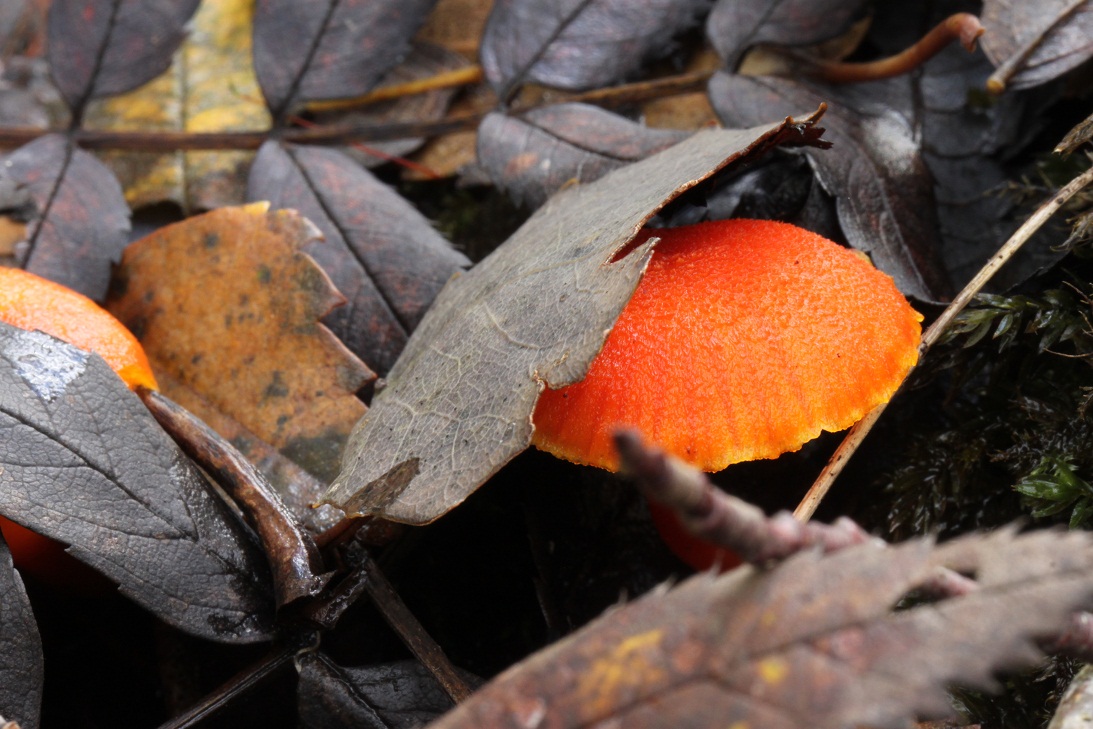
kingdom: Fungi
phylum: Basidiomycota
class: Agaricomycetes
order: Agaricales
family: Hygrophoraceae
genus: Hygrocybe
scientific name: Hygrocybe miniata
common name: mønje-vokshat
